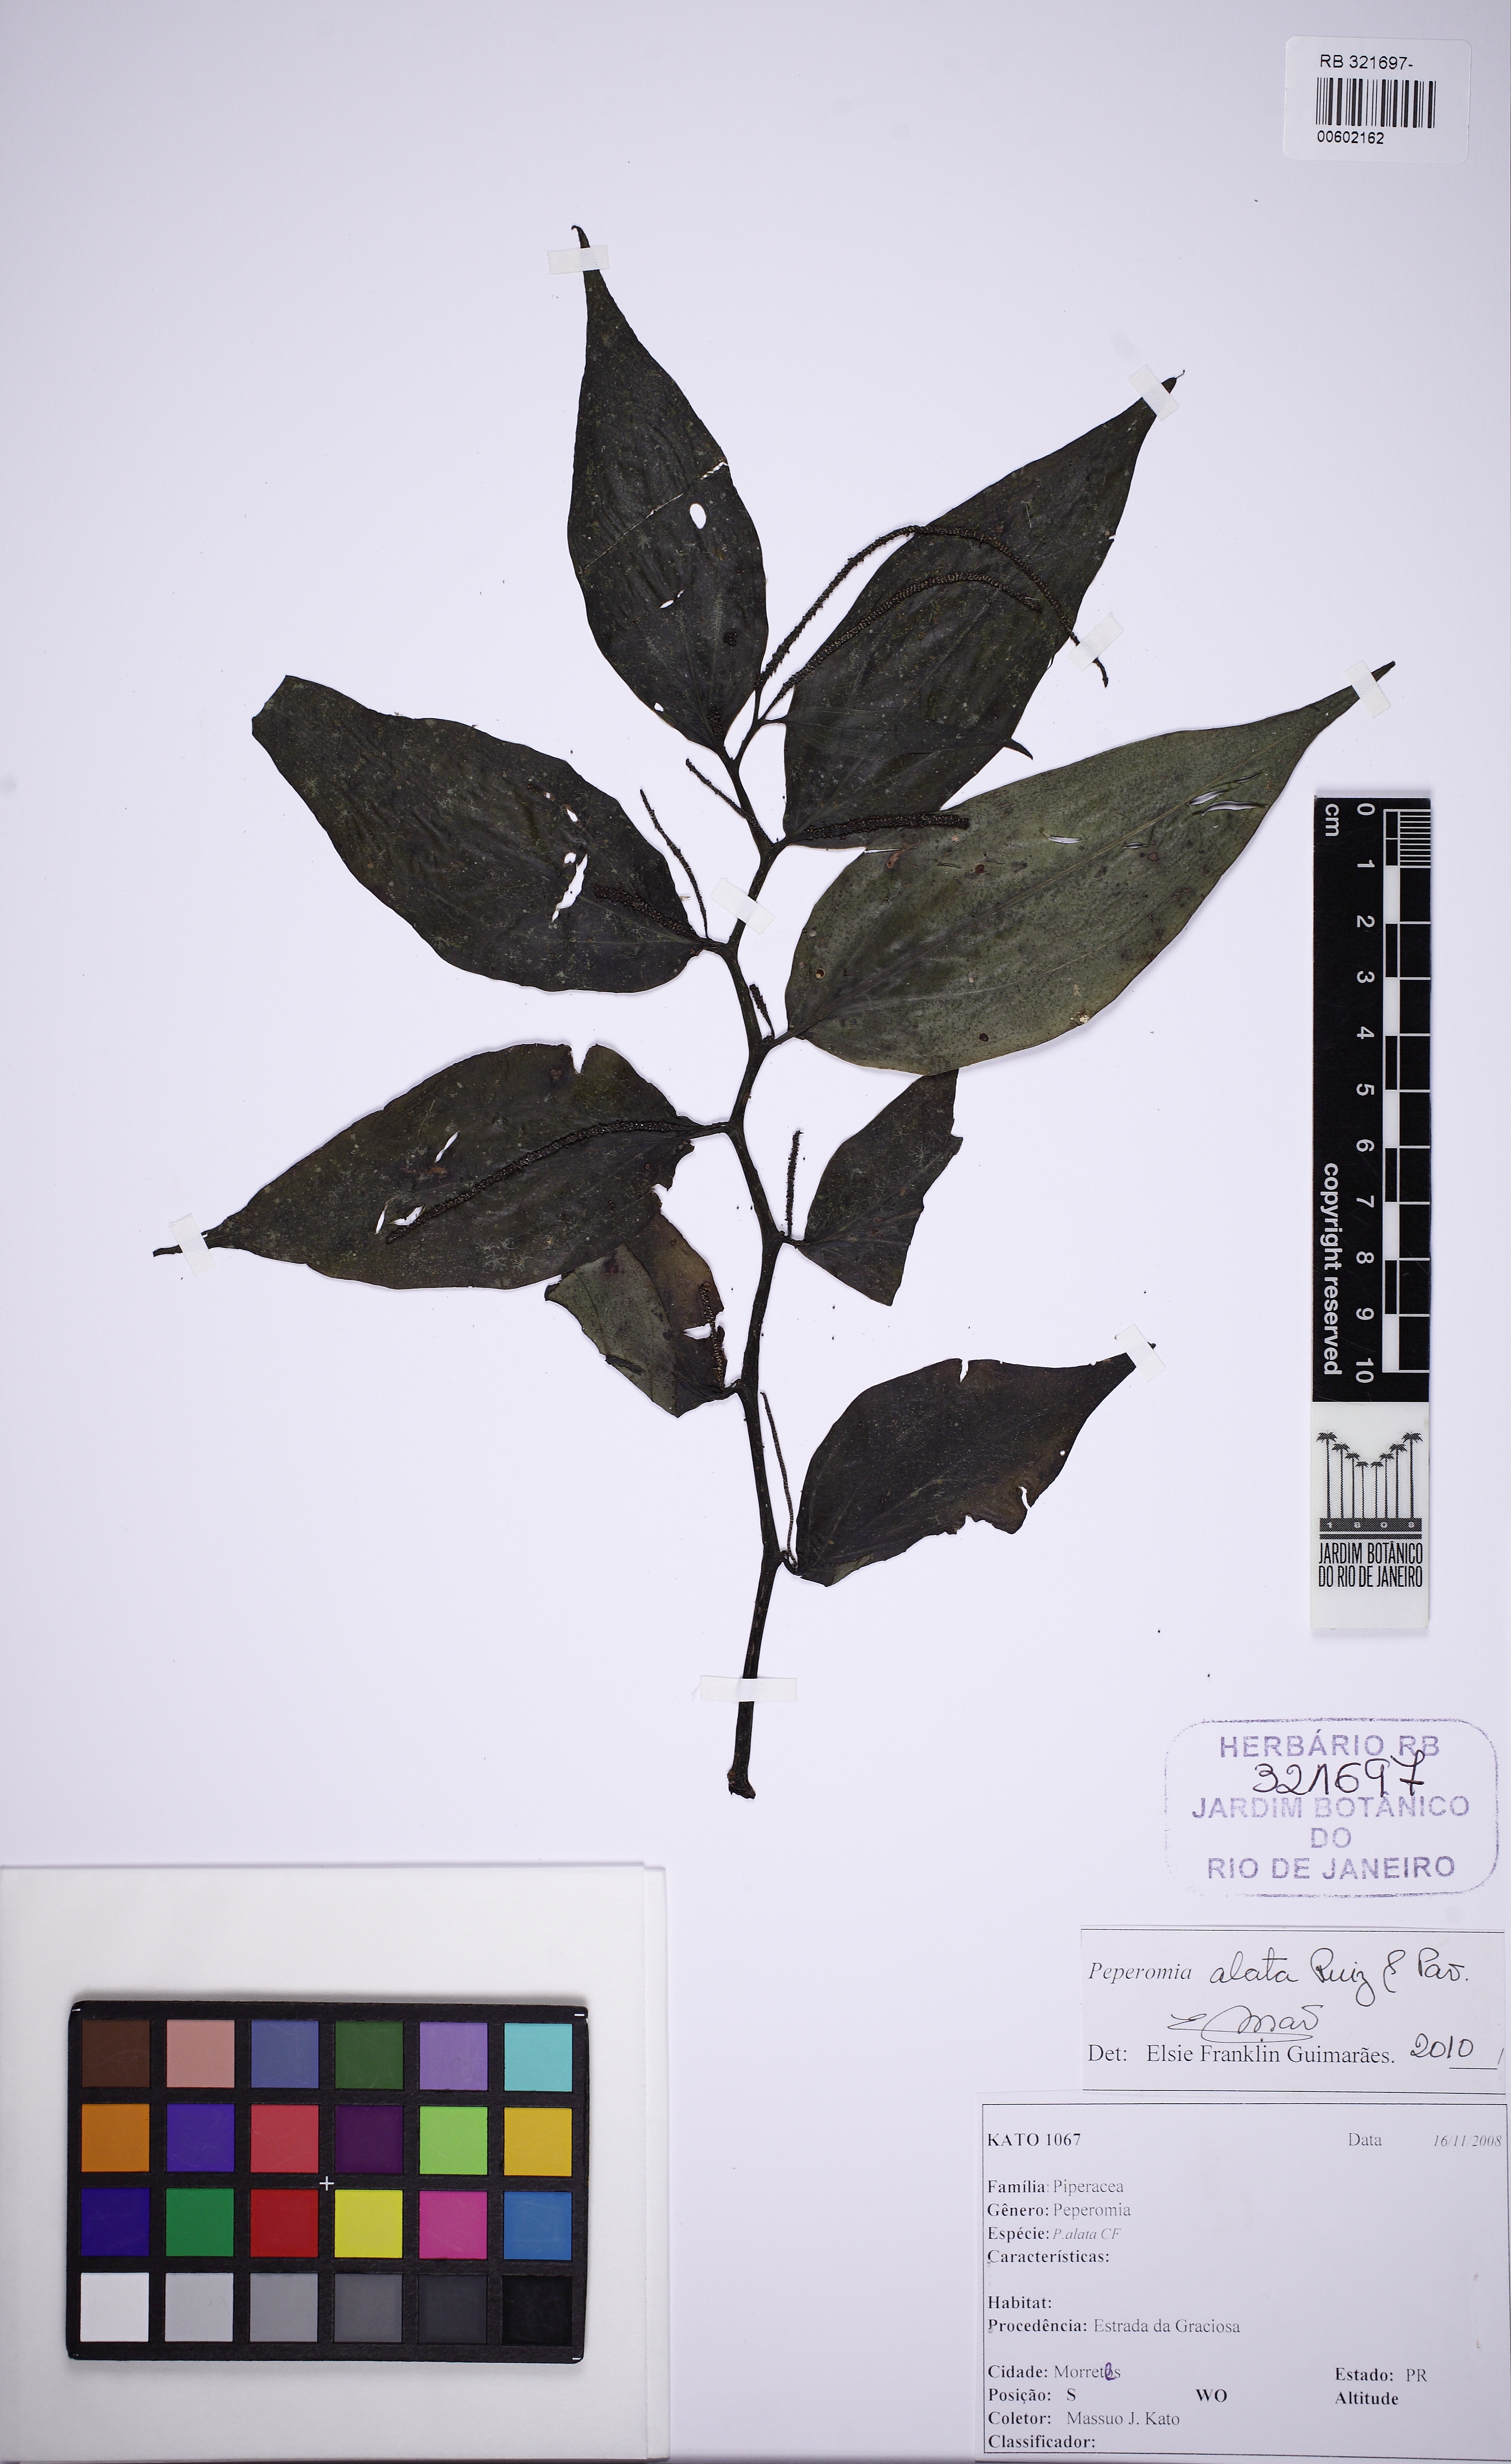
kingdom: Plantae
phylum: Tracheophyta
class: Magnoliopsida
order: Piperales
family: Piperaceae
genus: Peperomia
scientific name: Peperomia alata
